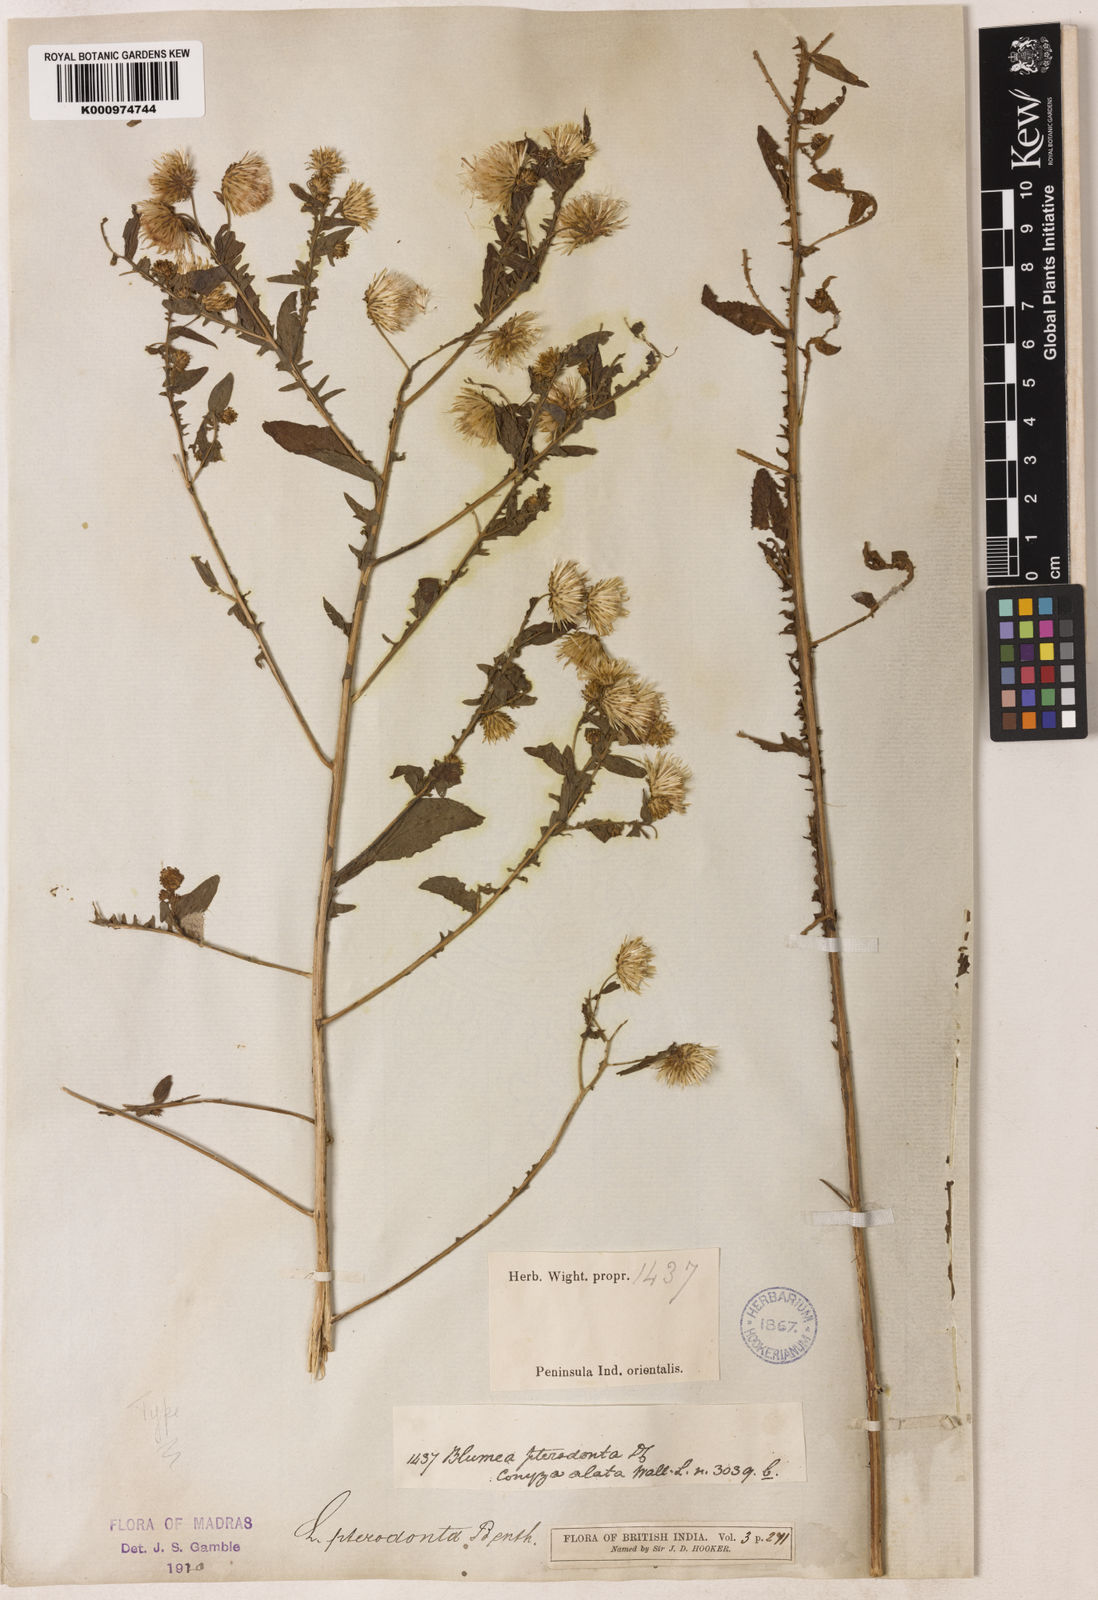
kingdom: Plantae
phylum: Tracheophyta
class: Magnoliopsida
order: Asterales
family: Asteraceae
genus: Laggera
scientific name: Laggera crispata
